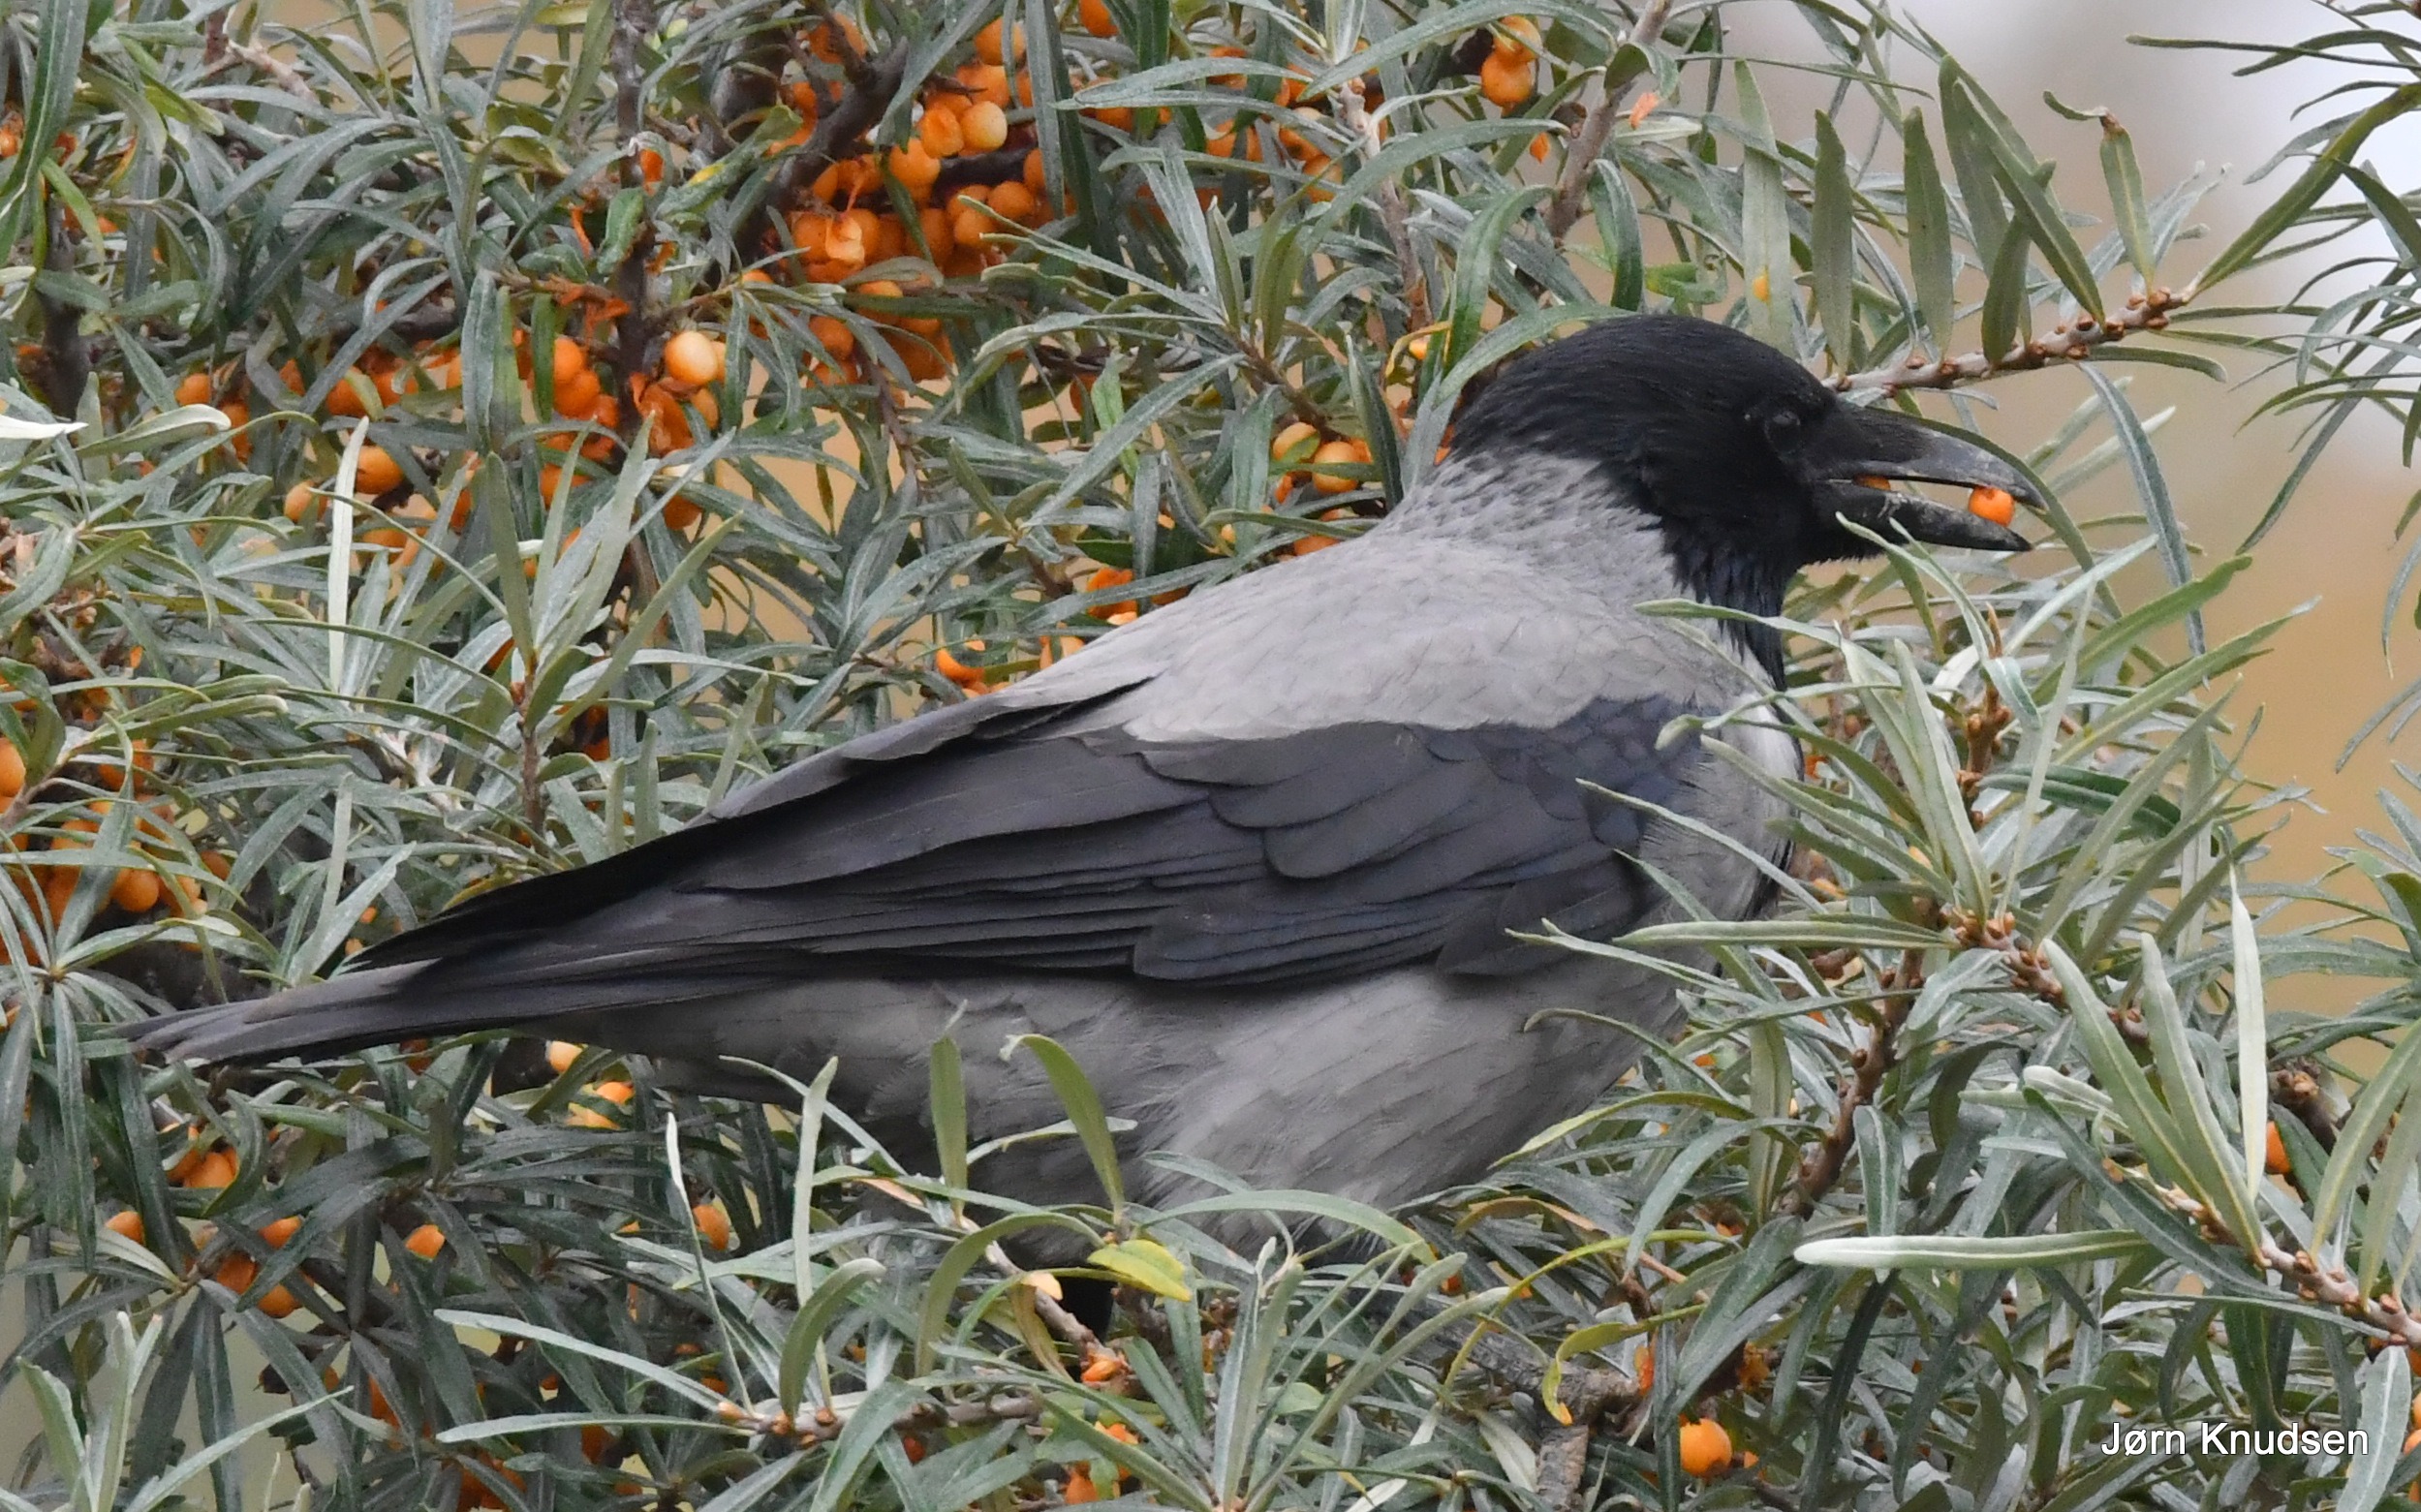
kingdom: Animalia
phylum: Chordata
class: Aves
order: Passeriformes
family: Corvidae
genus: Corvus
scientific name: Corvus cornix
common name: Gråkrage
